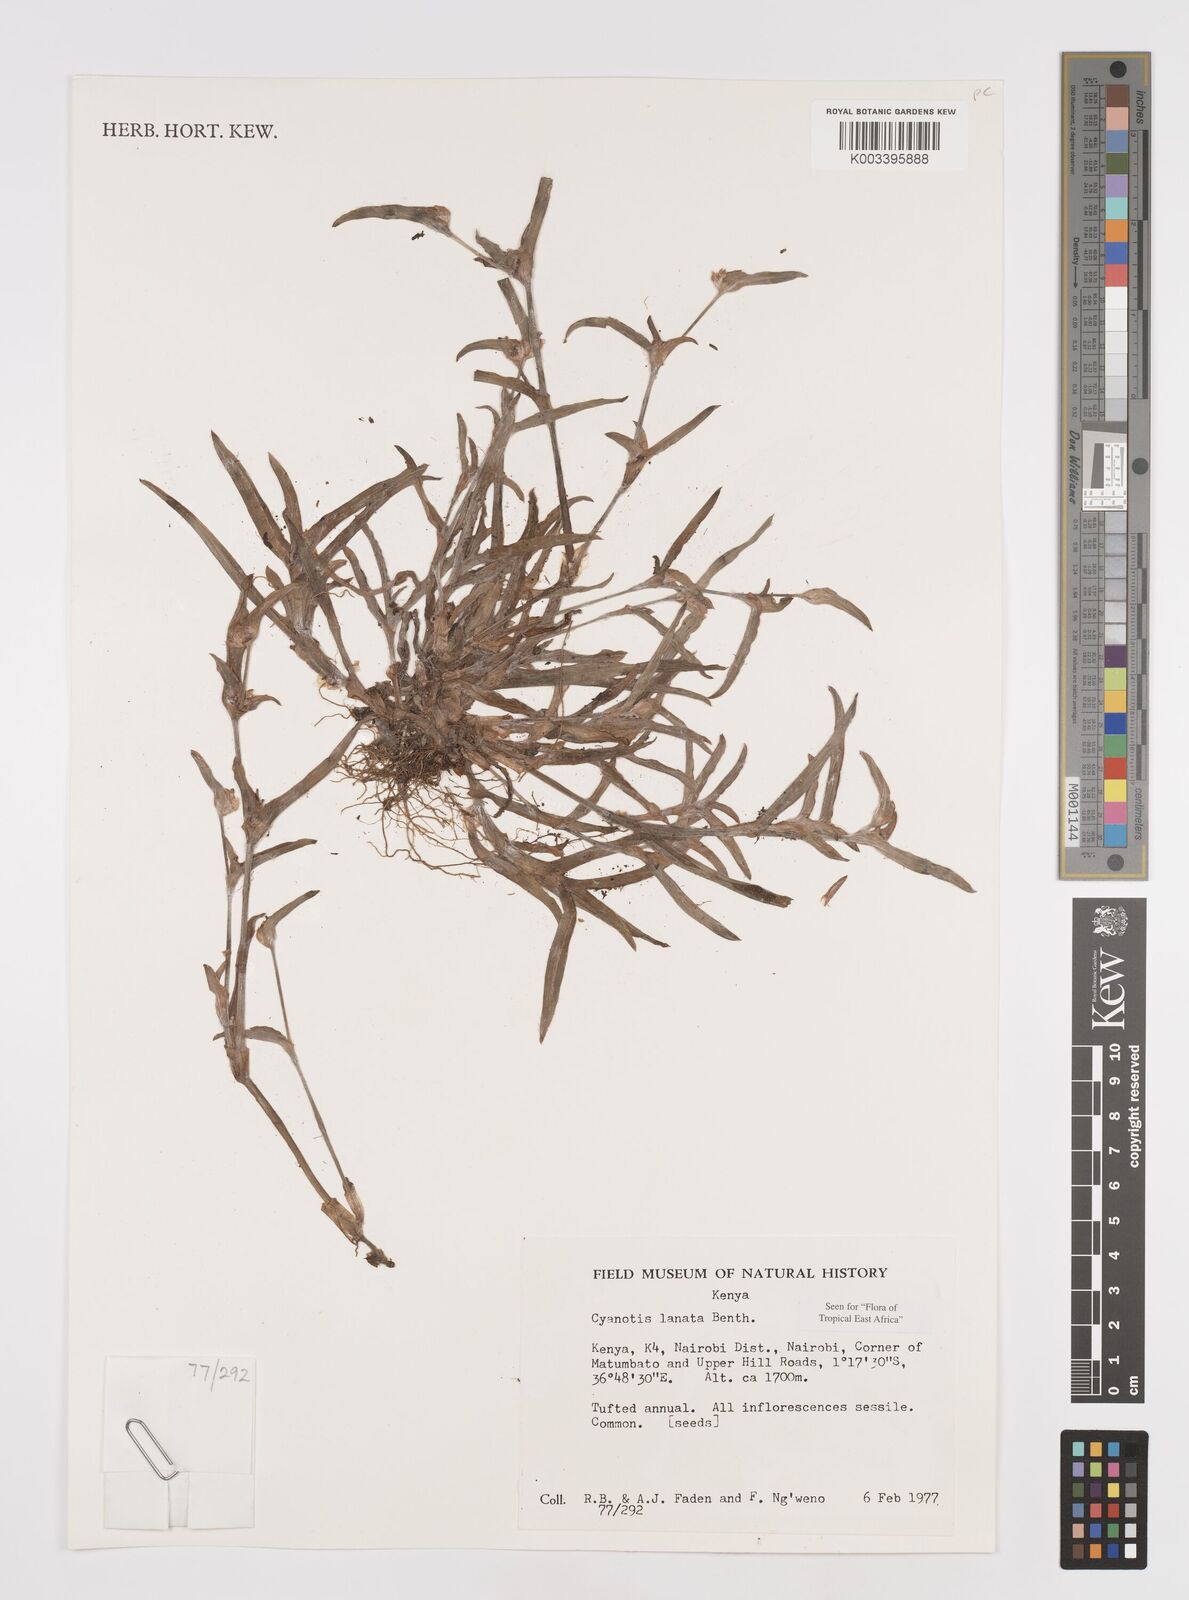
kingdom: Plantae
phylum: Tracheophyta
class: Liliopsida
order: Commelinales
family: Commelinaceae
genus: Cyanotis
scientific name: Cyanotis lanata
